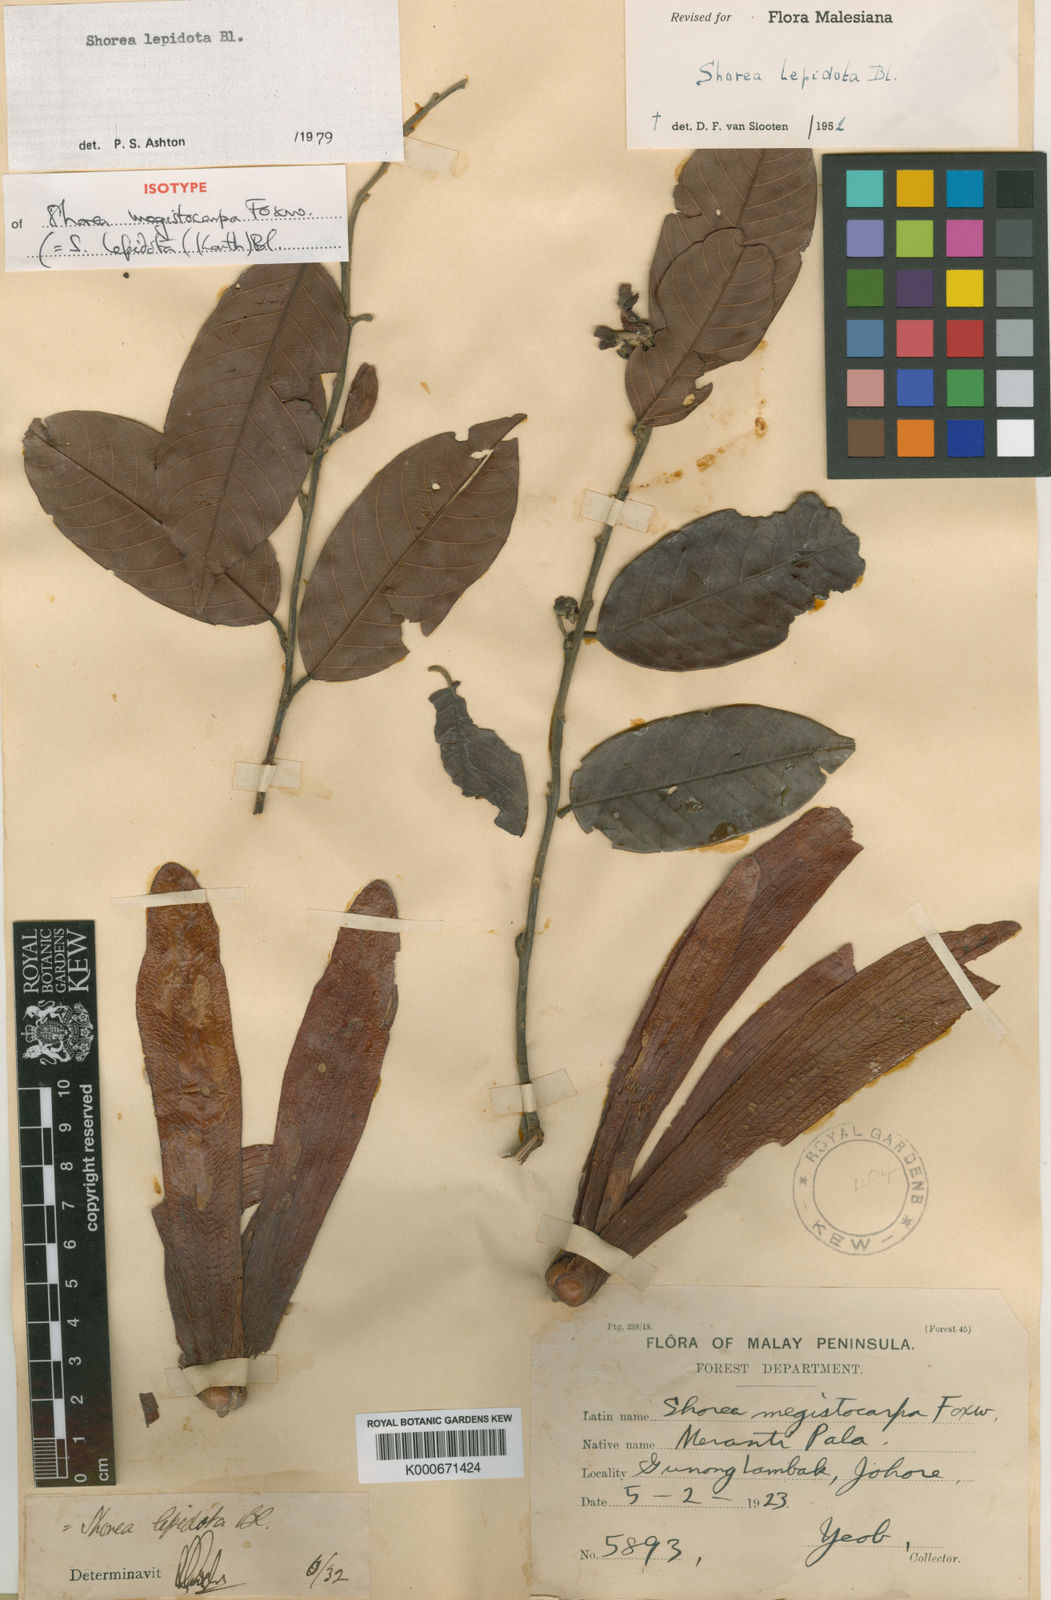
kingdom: Plantae
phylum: Tracheophyta
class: Magnoliopsida
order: Malvales
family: Dipterocarpaceae
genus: Shorea
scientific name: Shorea lepidota
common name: Light red meranti
